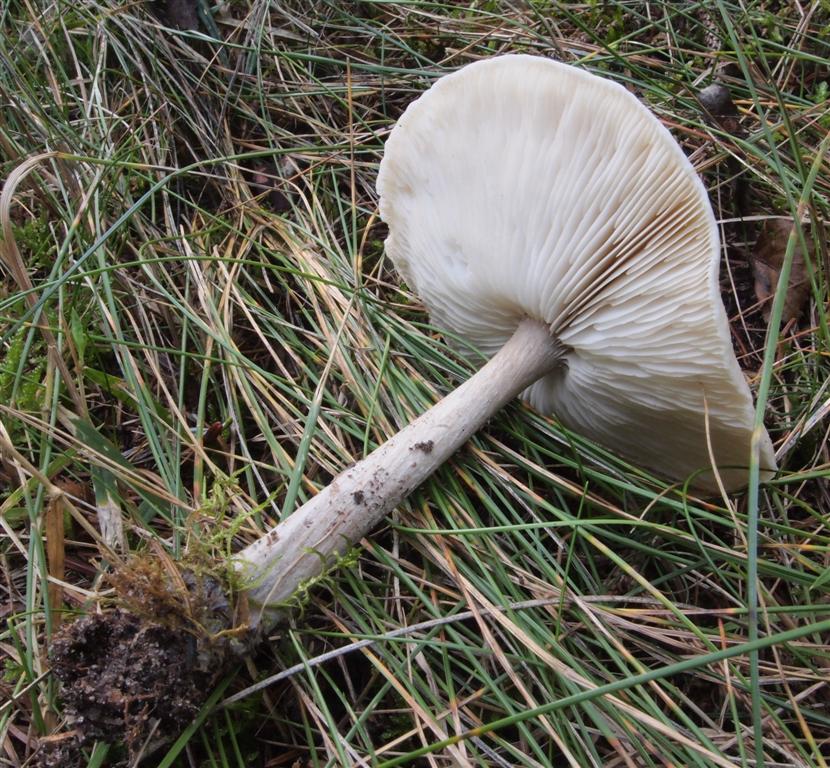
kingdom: Fungi
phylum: Basidiomycota
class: Agaricomycetes
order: Agaricales
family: Tricholomataceae
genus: Melanoleuca
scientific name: Melanoleuca strictipes
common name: sommer-munkehat
